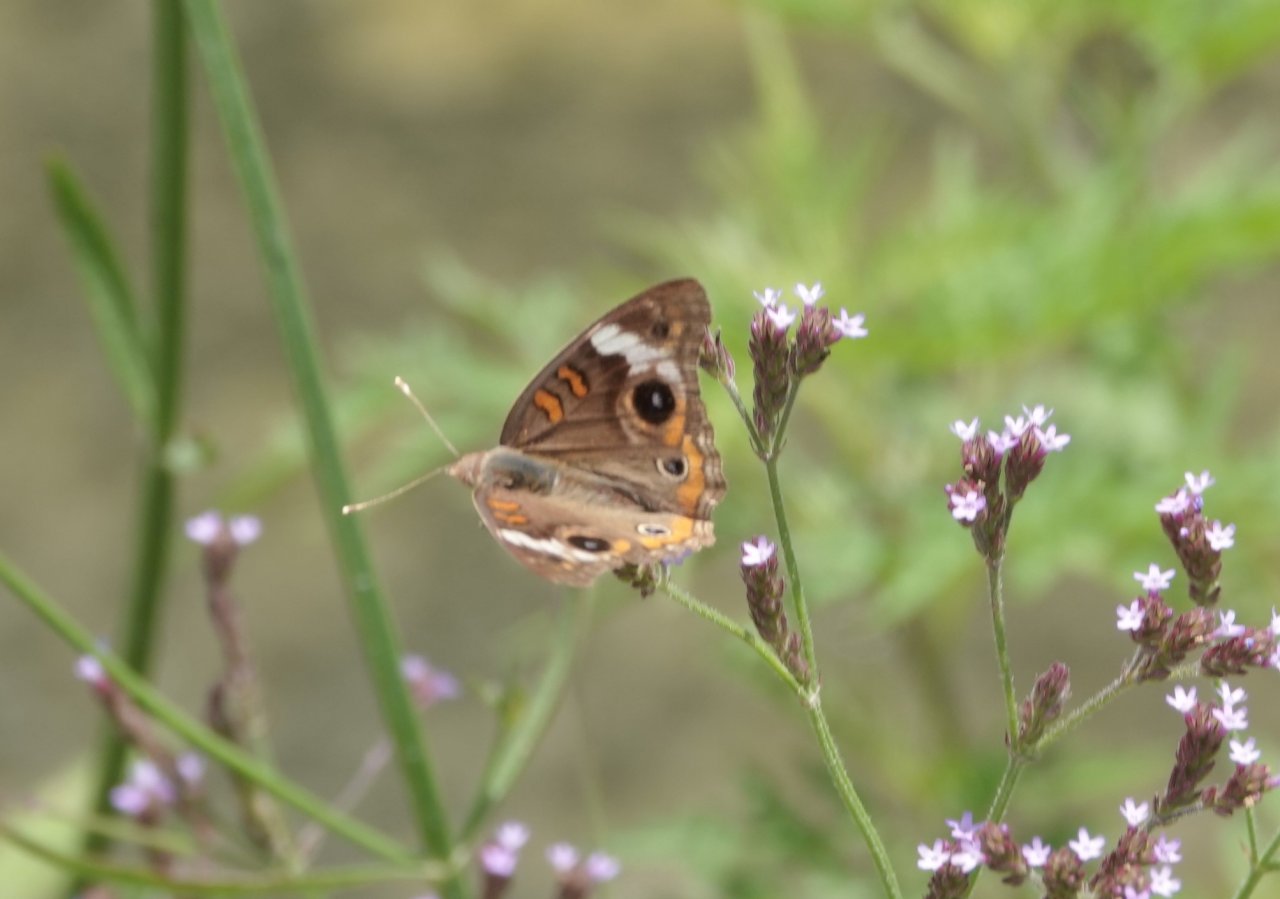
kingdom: Animalia
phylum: Arthropoda
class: Insecta
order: Lepidoptera
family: Nymphalidae
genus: Junonia
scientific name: Junonia coenia
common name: Common Buckeye
